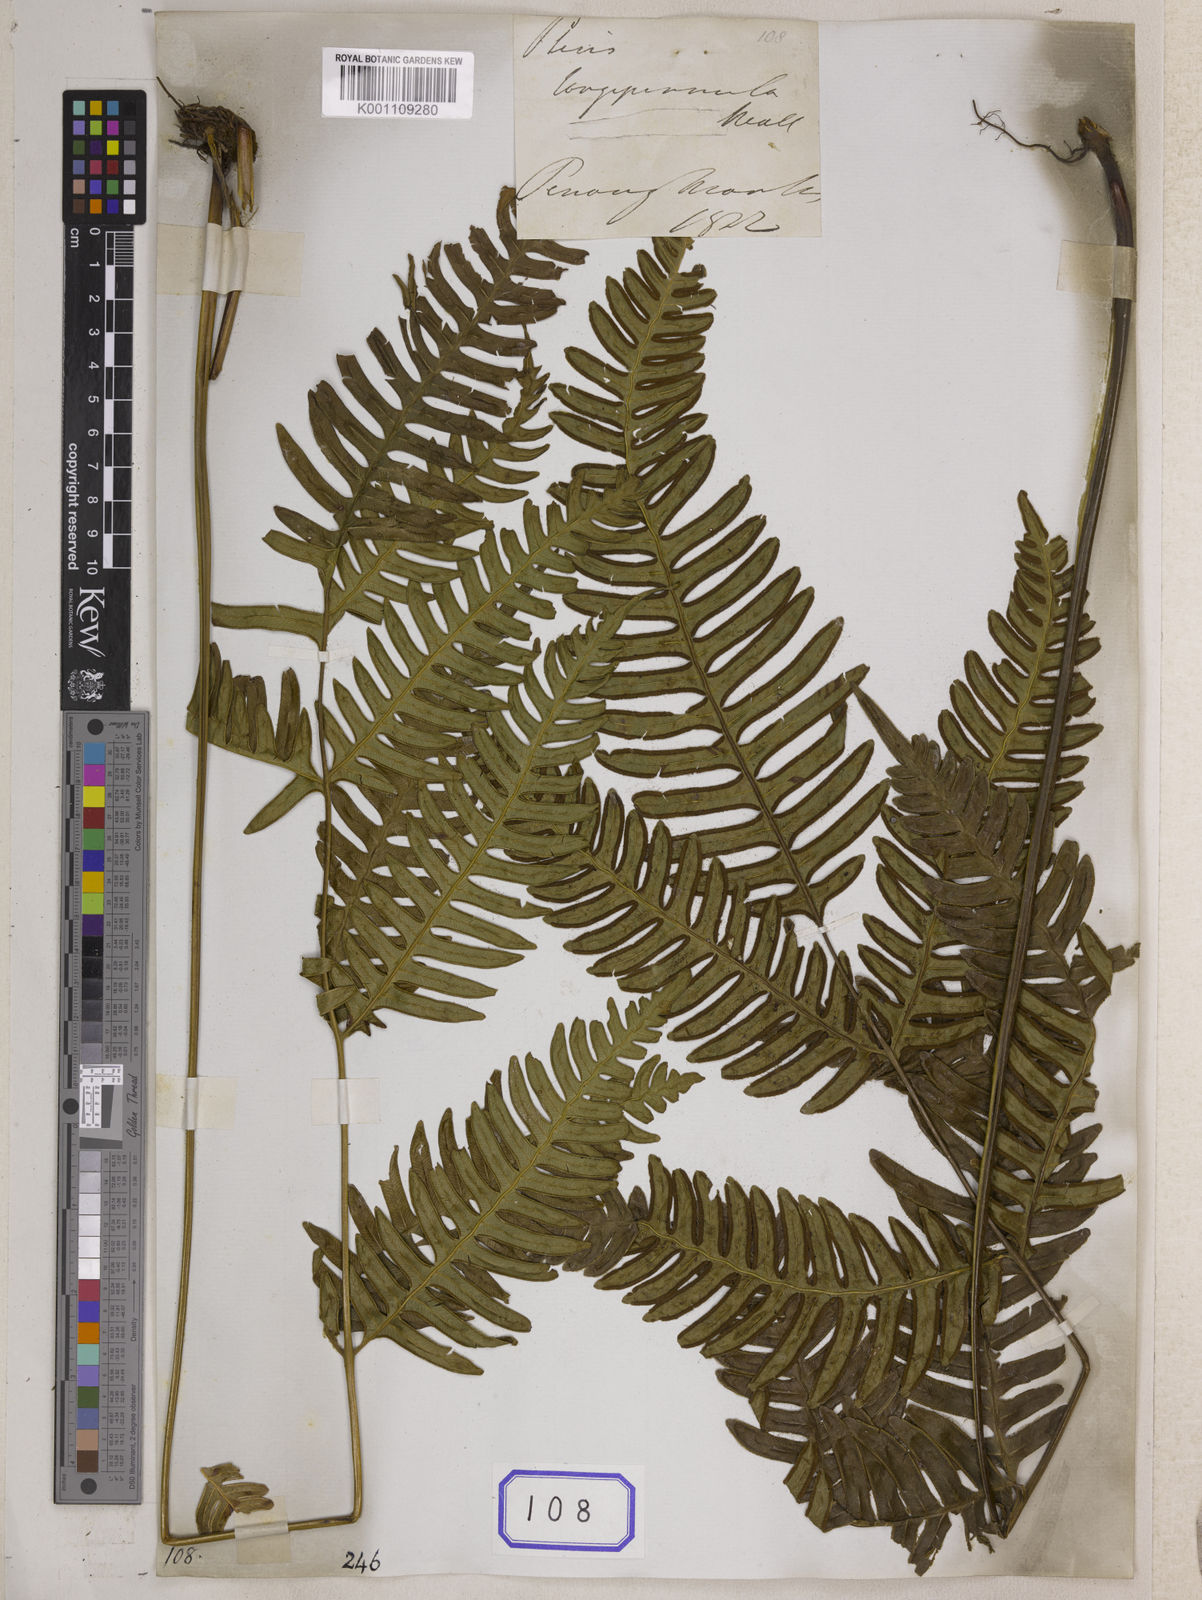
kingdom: Plantae
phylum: Tracheophyta
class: Polypodiopsida
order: Polypodiales
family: Pteridaceae
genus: Pteris
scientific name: Pteris longipinnula
